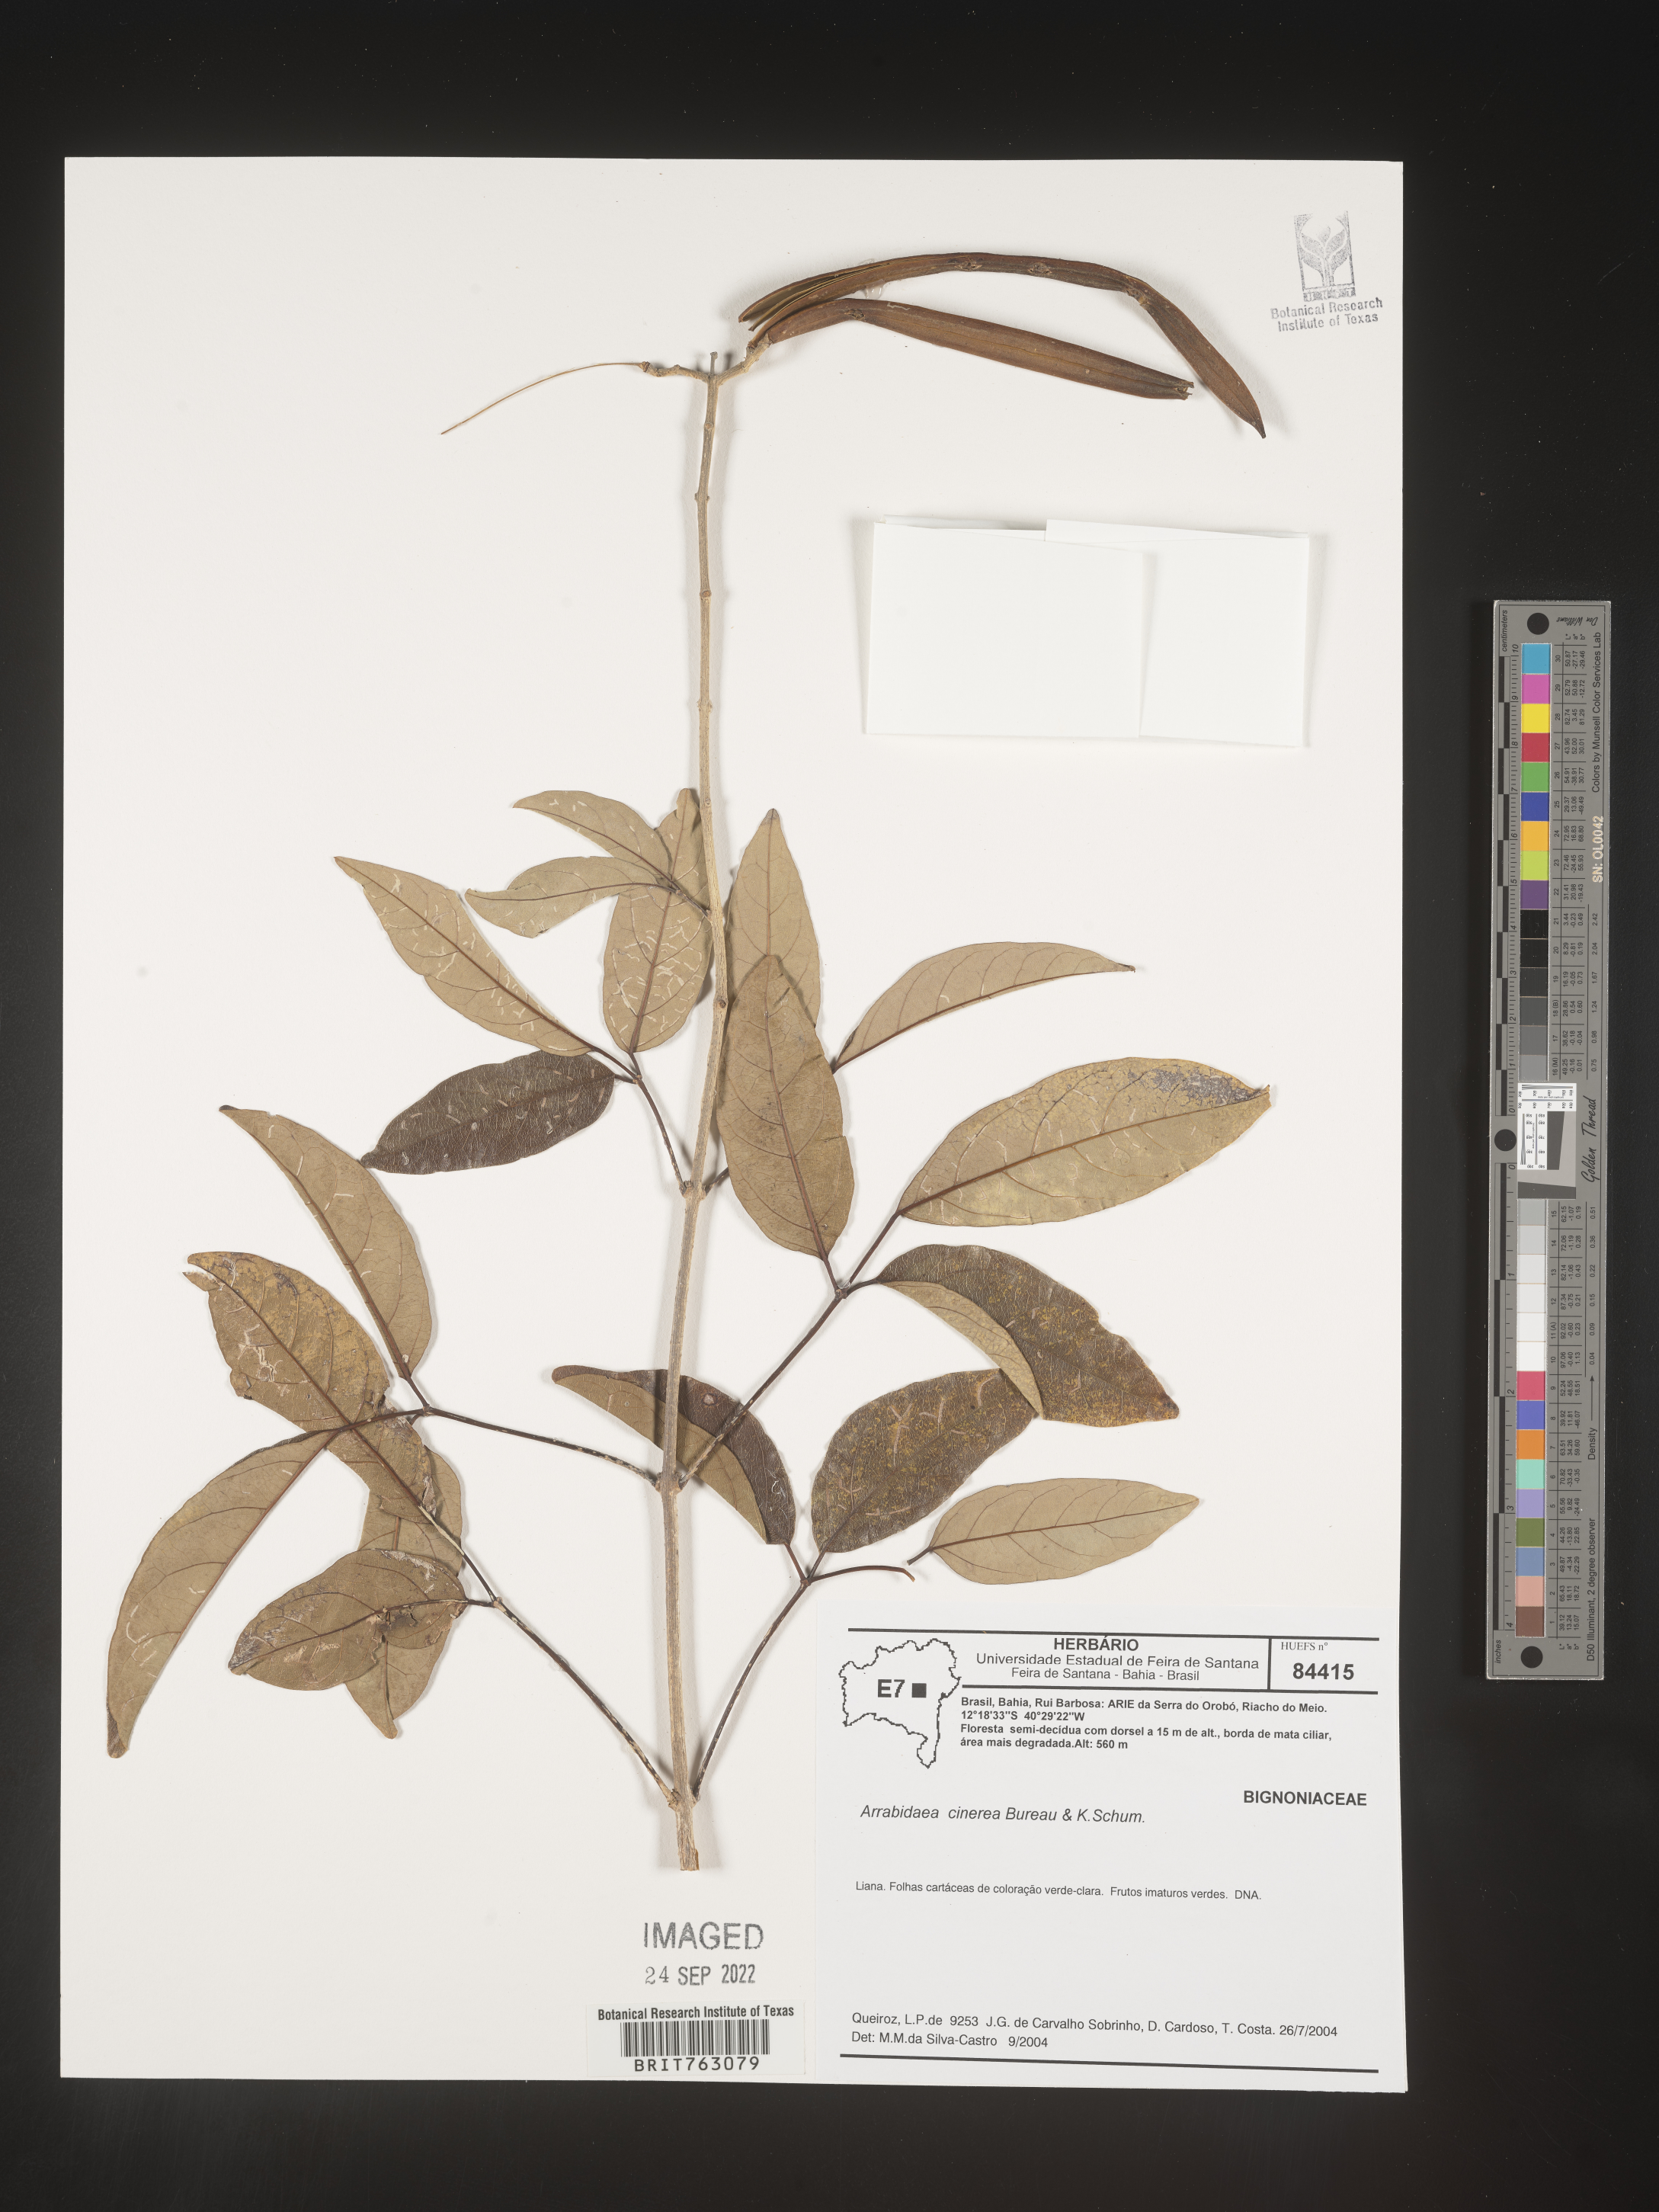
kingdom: Plantae
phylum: Tracheophyta
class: Magnoliopsida
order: Rosales
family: Rhamnaceae
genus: Arrabidaea
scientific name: Arrabidaea
